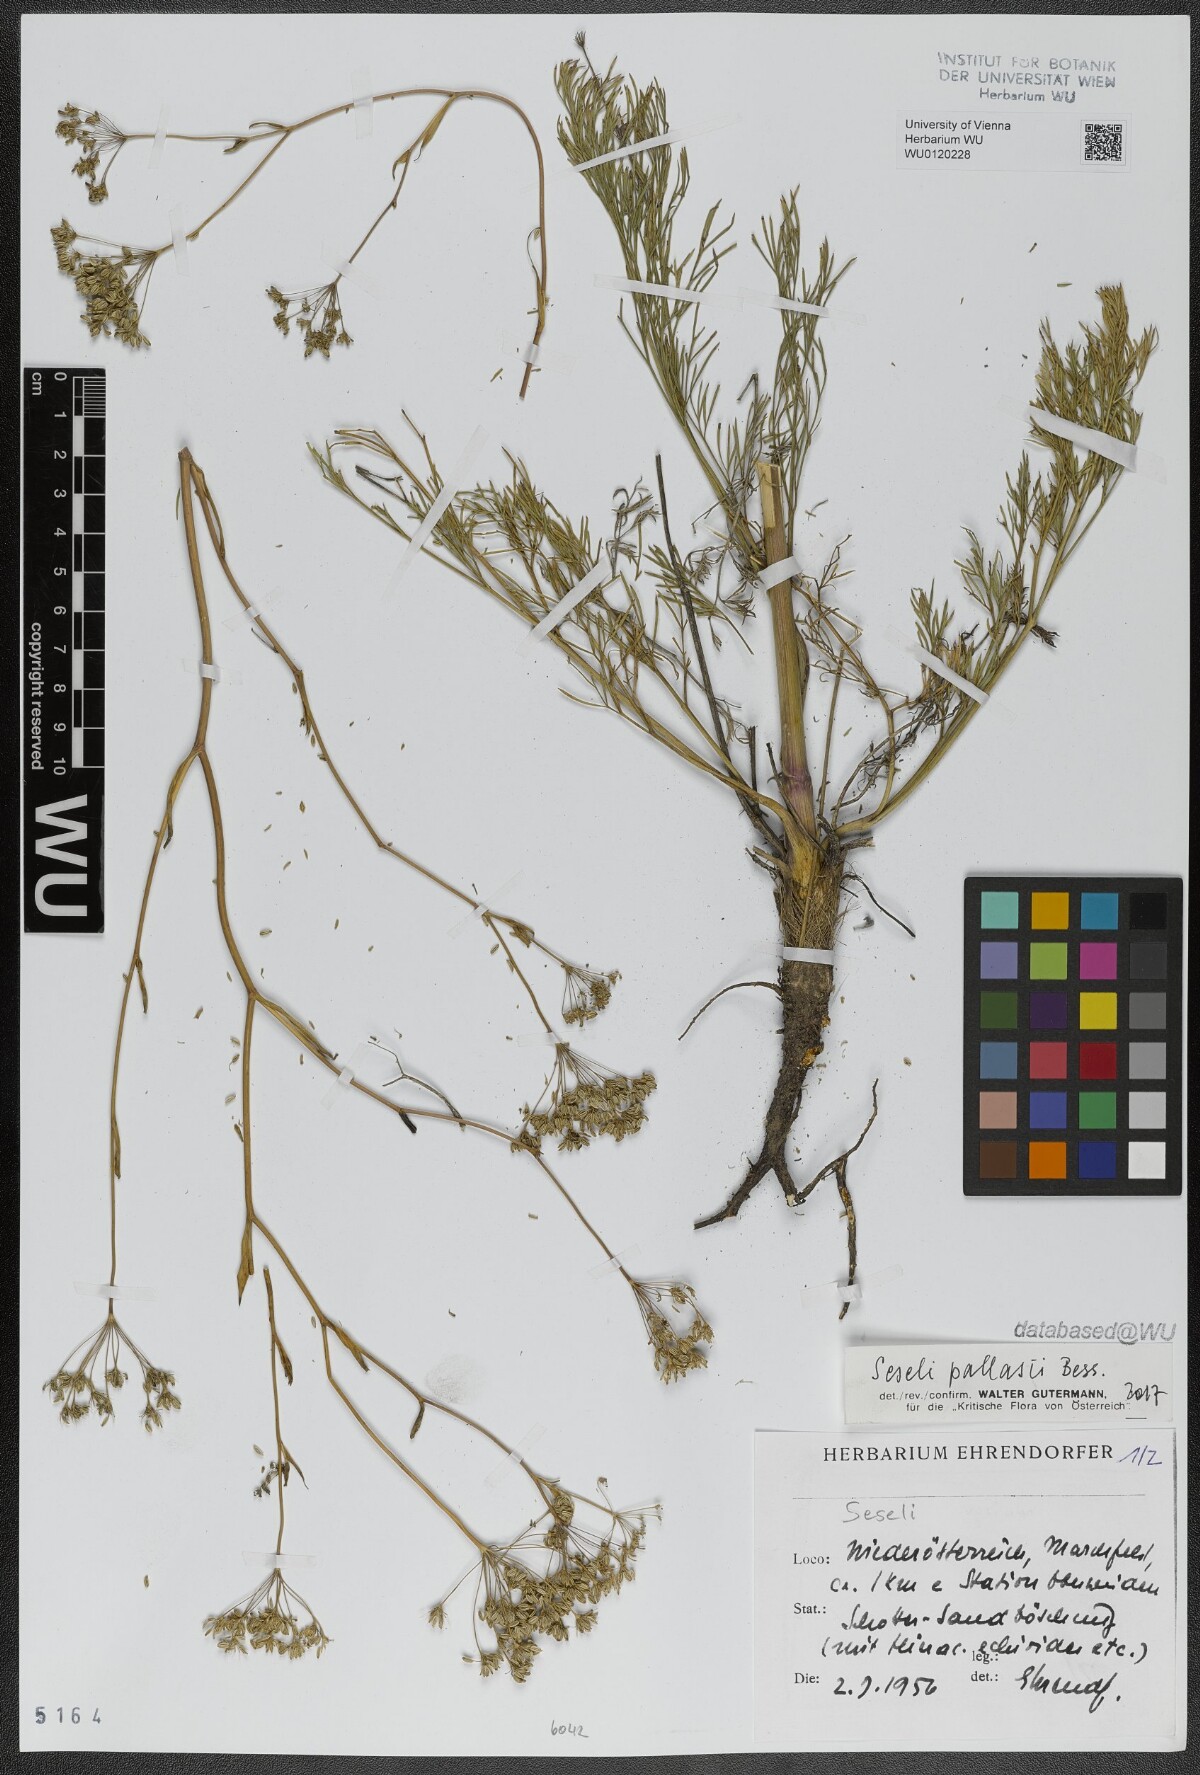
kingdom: Plantae
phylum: Tracheophyta
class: Magnoliopsida
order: Apiales
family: Apiaceae
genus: Seseli
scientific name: Seseli pallasii
